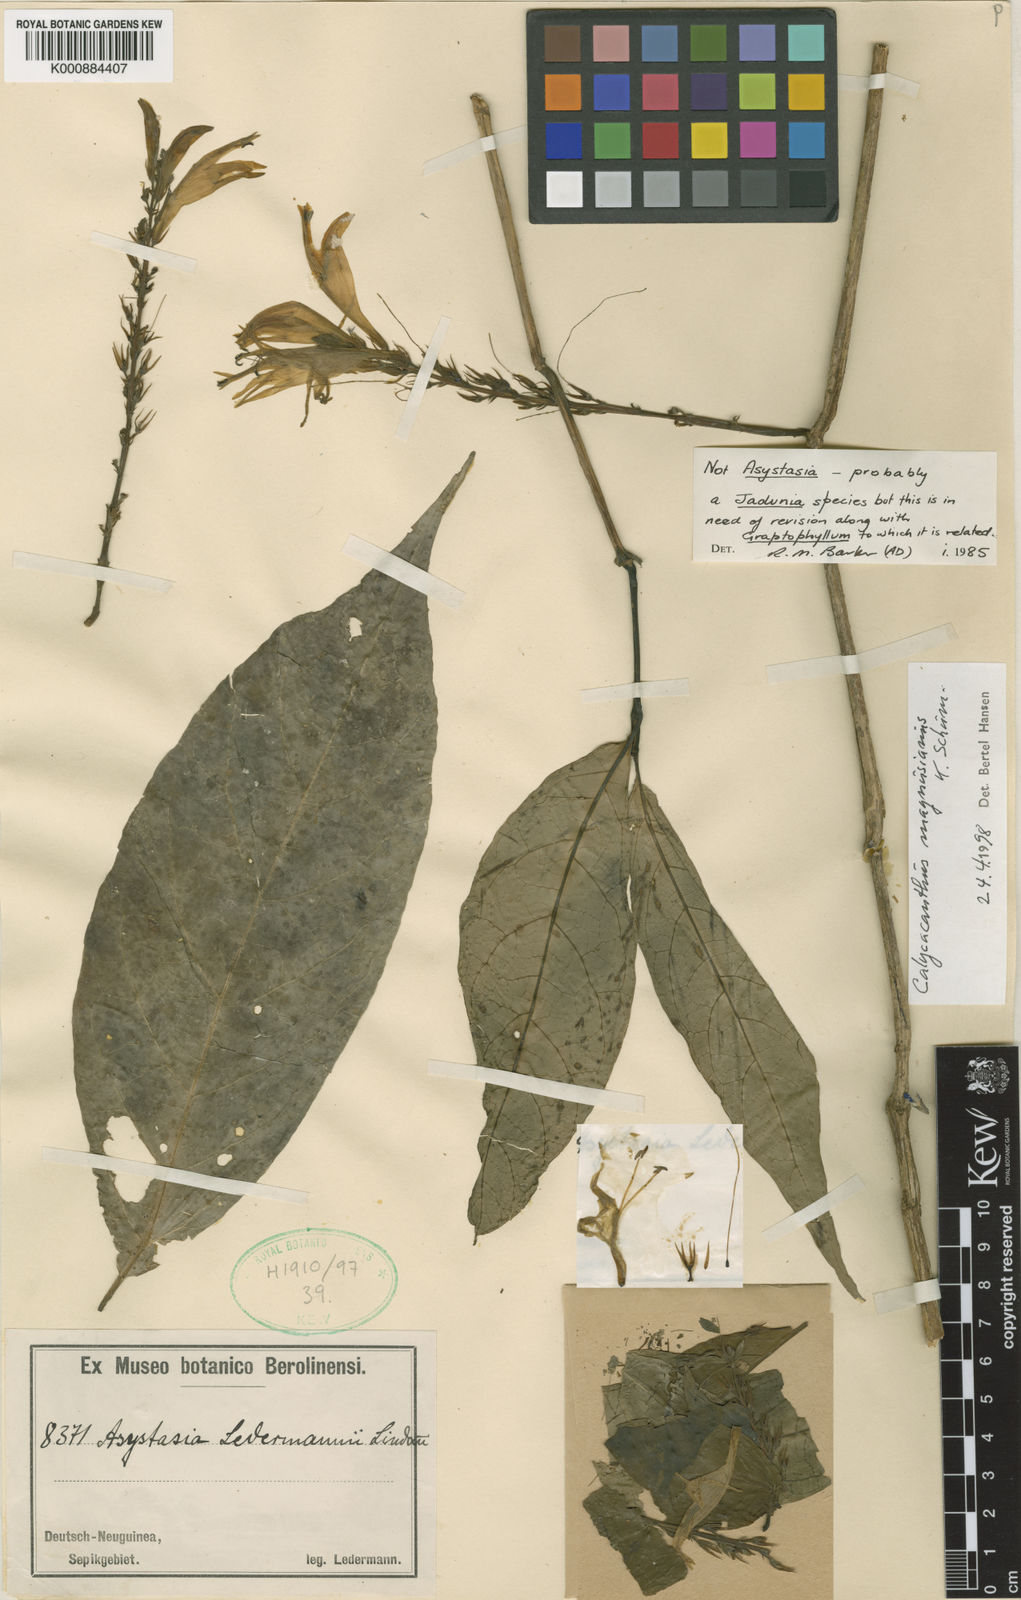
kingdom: Plantae
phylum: Tracheophyta
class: Magnoliopsida
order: Lamiales
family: Acanthaceae
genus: Calycacanthus
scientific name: Calycacanthus magnusianus
